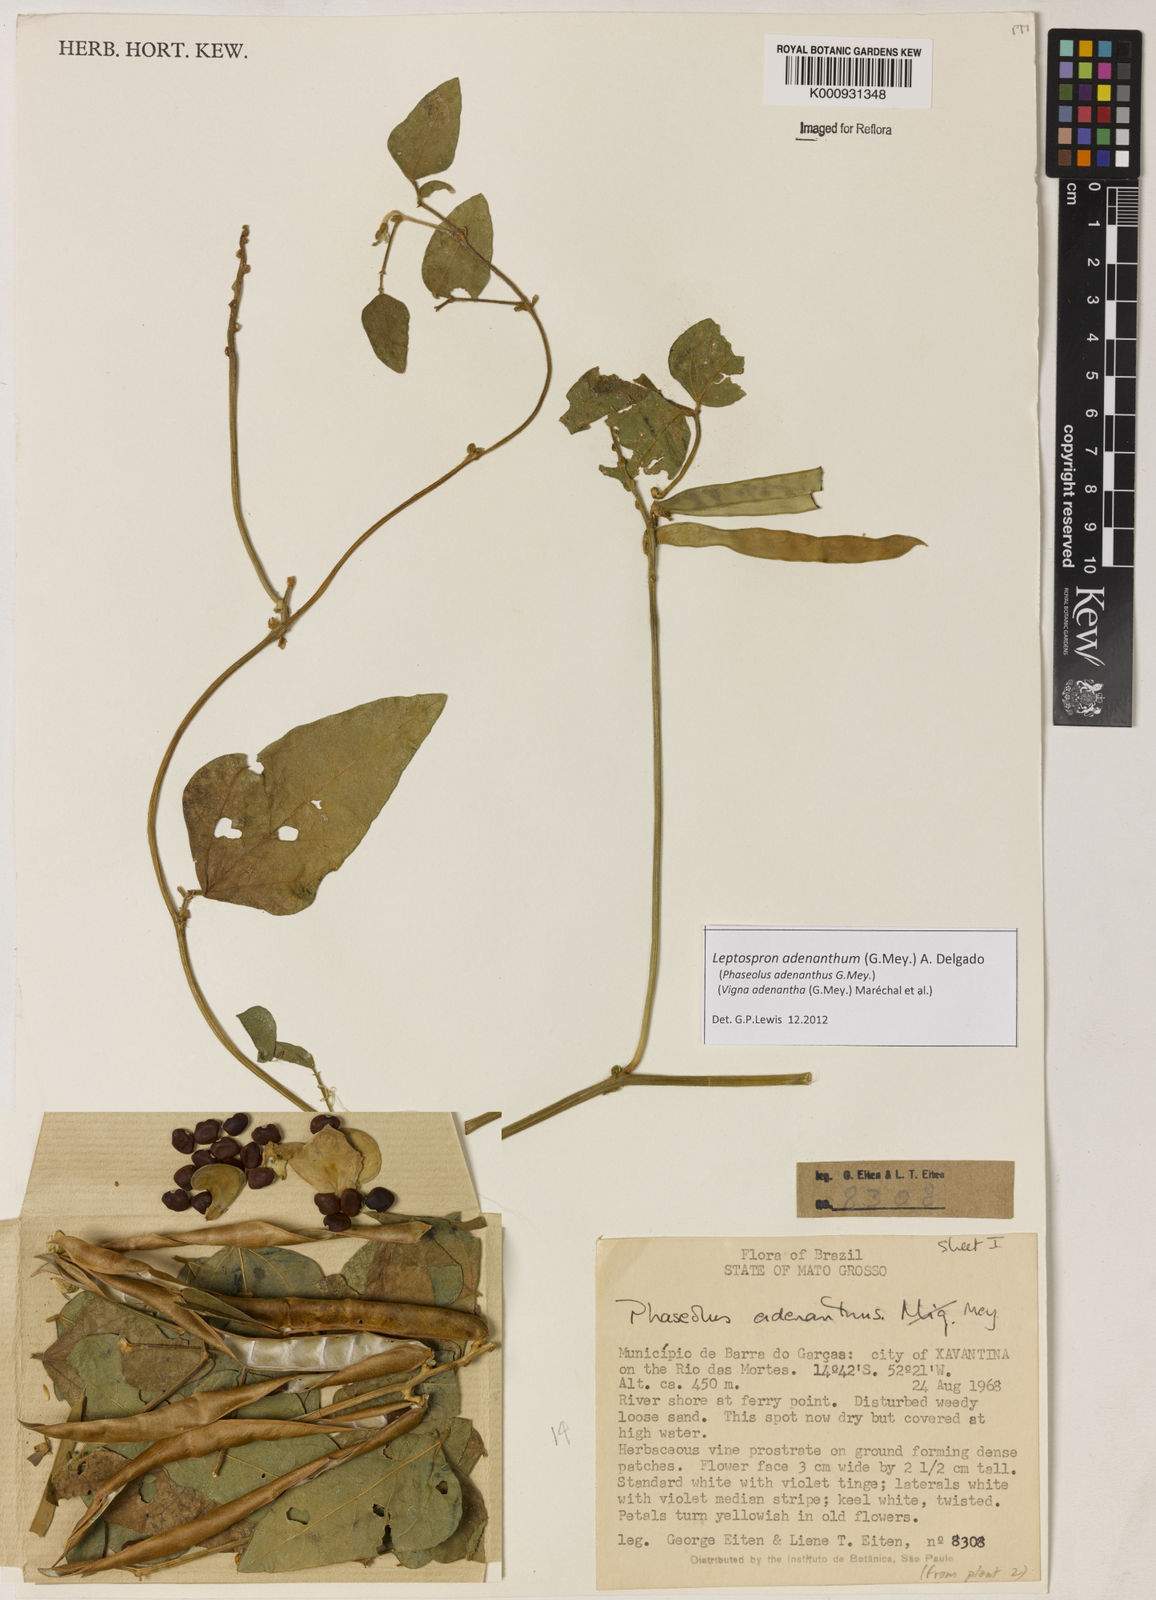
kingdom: Plantae
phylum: Tracheophyta
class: Magnoliopsida
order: Fabales
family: Fabaceae
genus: Leptospron
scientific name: Leptospron adenanthum
